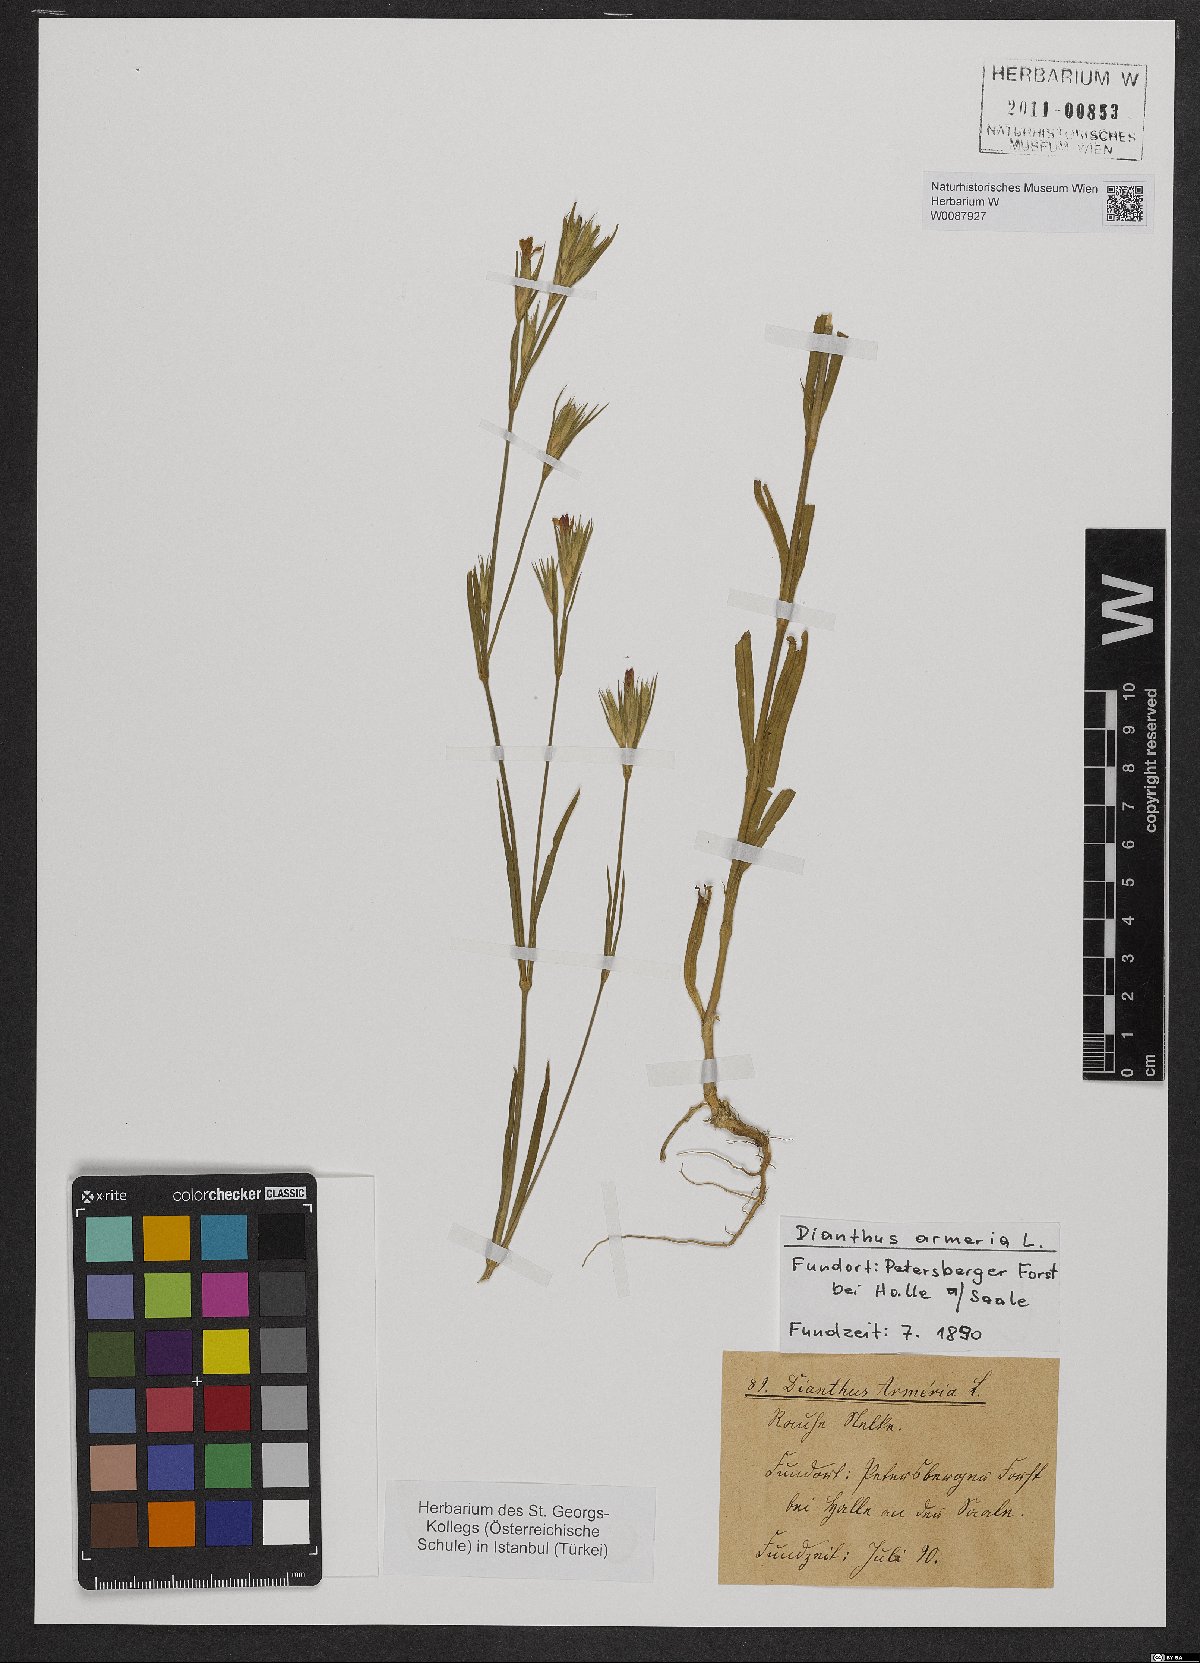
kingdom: Plantae
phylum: Tracheophyta
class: Magnoliopsida
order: Caryophyllales
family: Caryophyllaceae
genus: Dianthus
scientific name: Dianthus superbus
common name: Fringed pink
